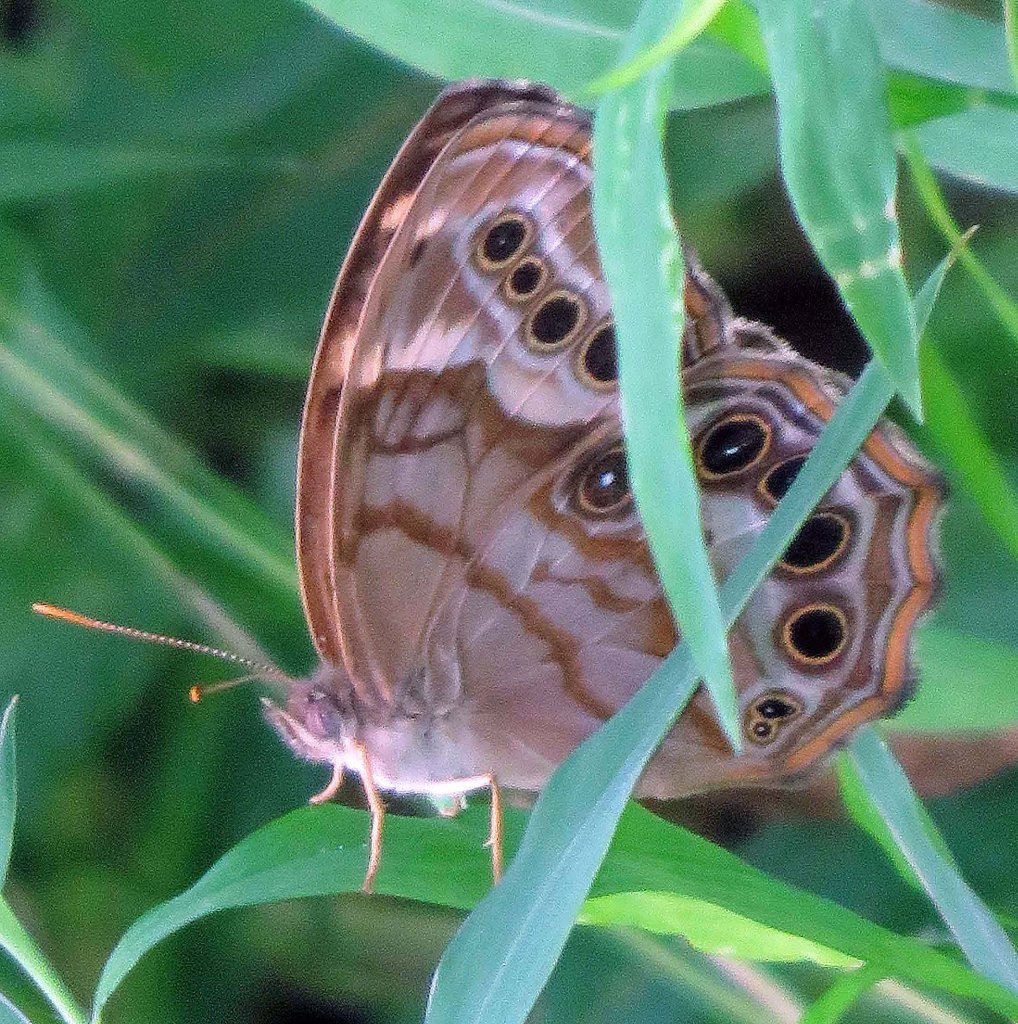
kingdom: Animalia
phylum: Arthropoda
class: Insecta
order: Lepidoptera
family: Nymphalidae
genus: Enodia
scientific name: Enodia portlandia
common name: Southern Pearly Eye
